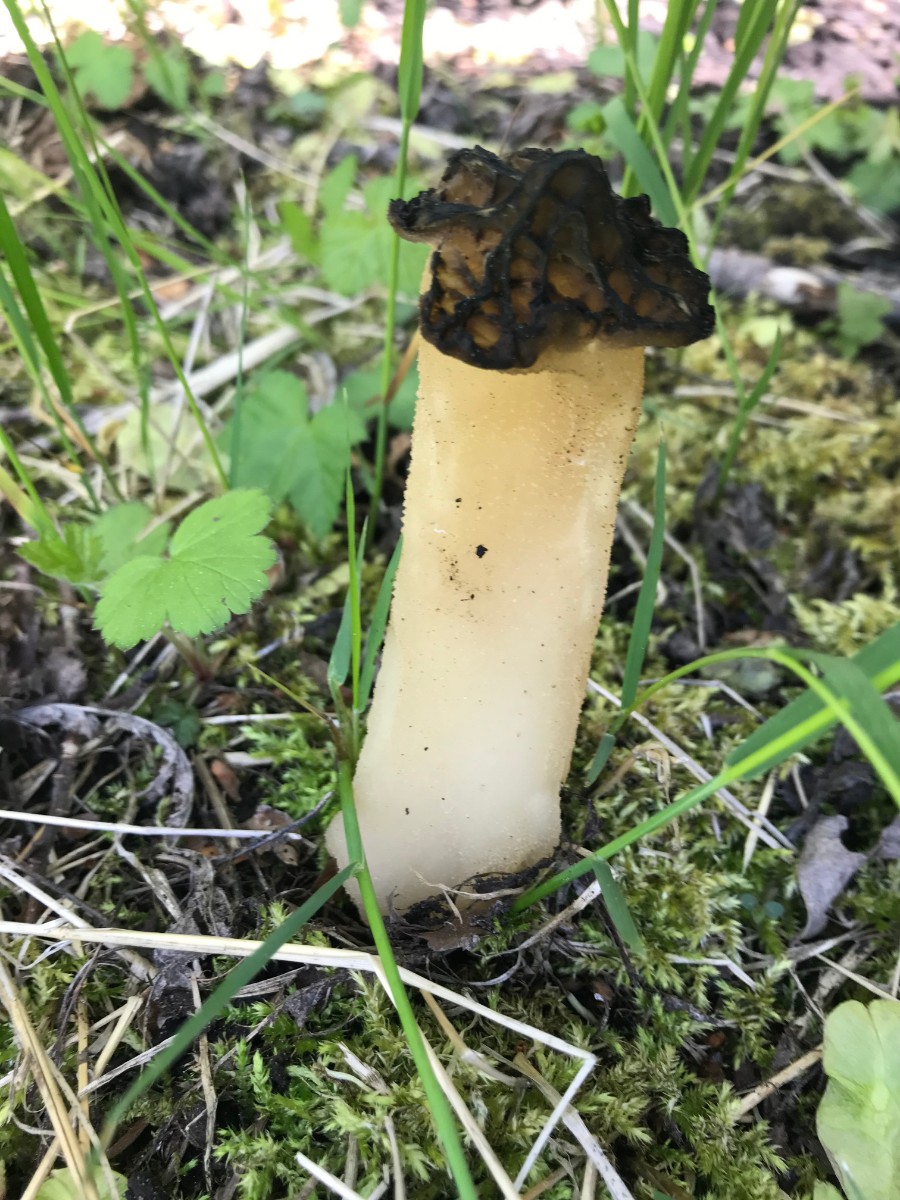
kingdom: Fungi
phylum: Ascomycota
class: Pezizomycetes
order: Pezizales
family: Morchellaceae
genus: Morchella
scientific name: Morchella semilibera
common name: hætte-morkel
